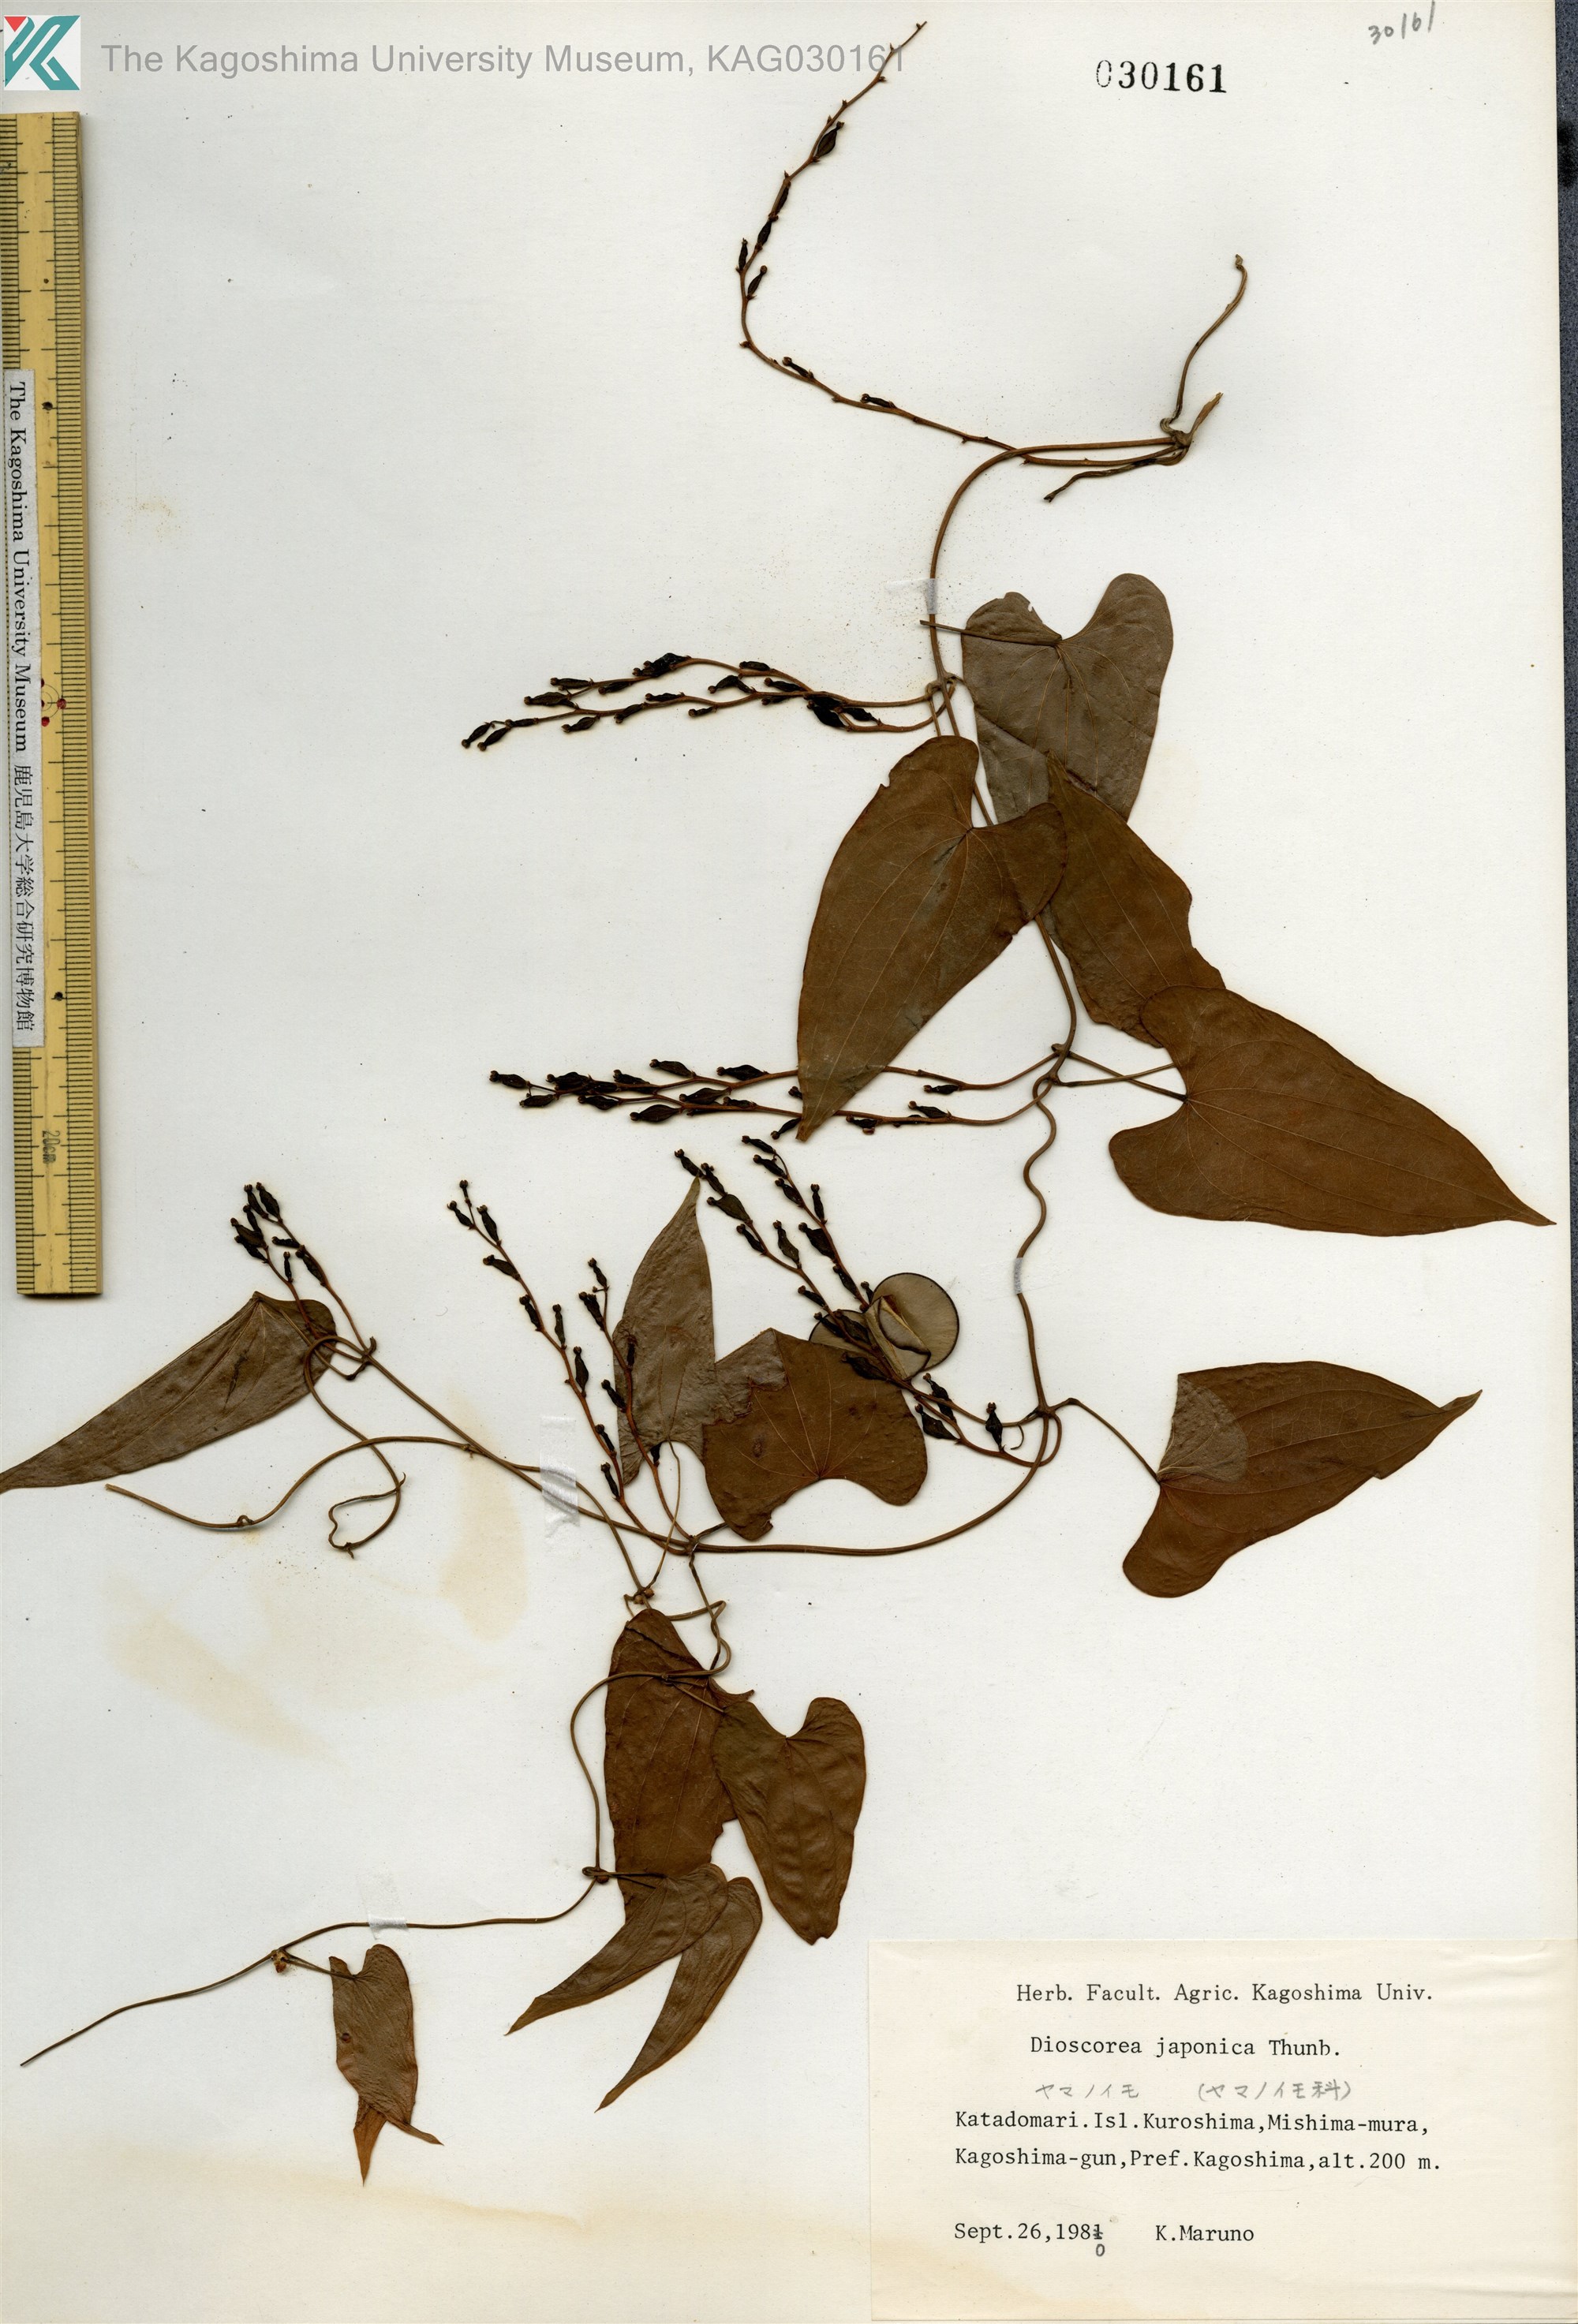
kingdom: Plantae
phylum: Tracheophyta
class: Liliopsida
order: Dioscoreales
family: Dioscoreaceae
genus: Dioscorea
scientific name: Dioscorea japonica
